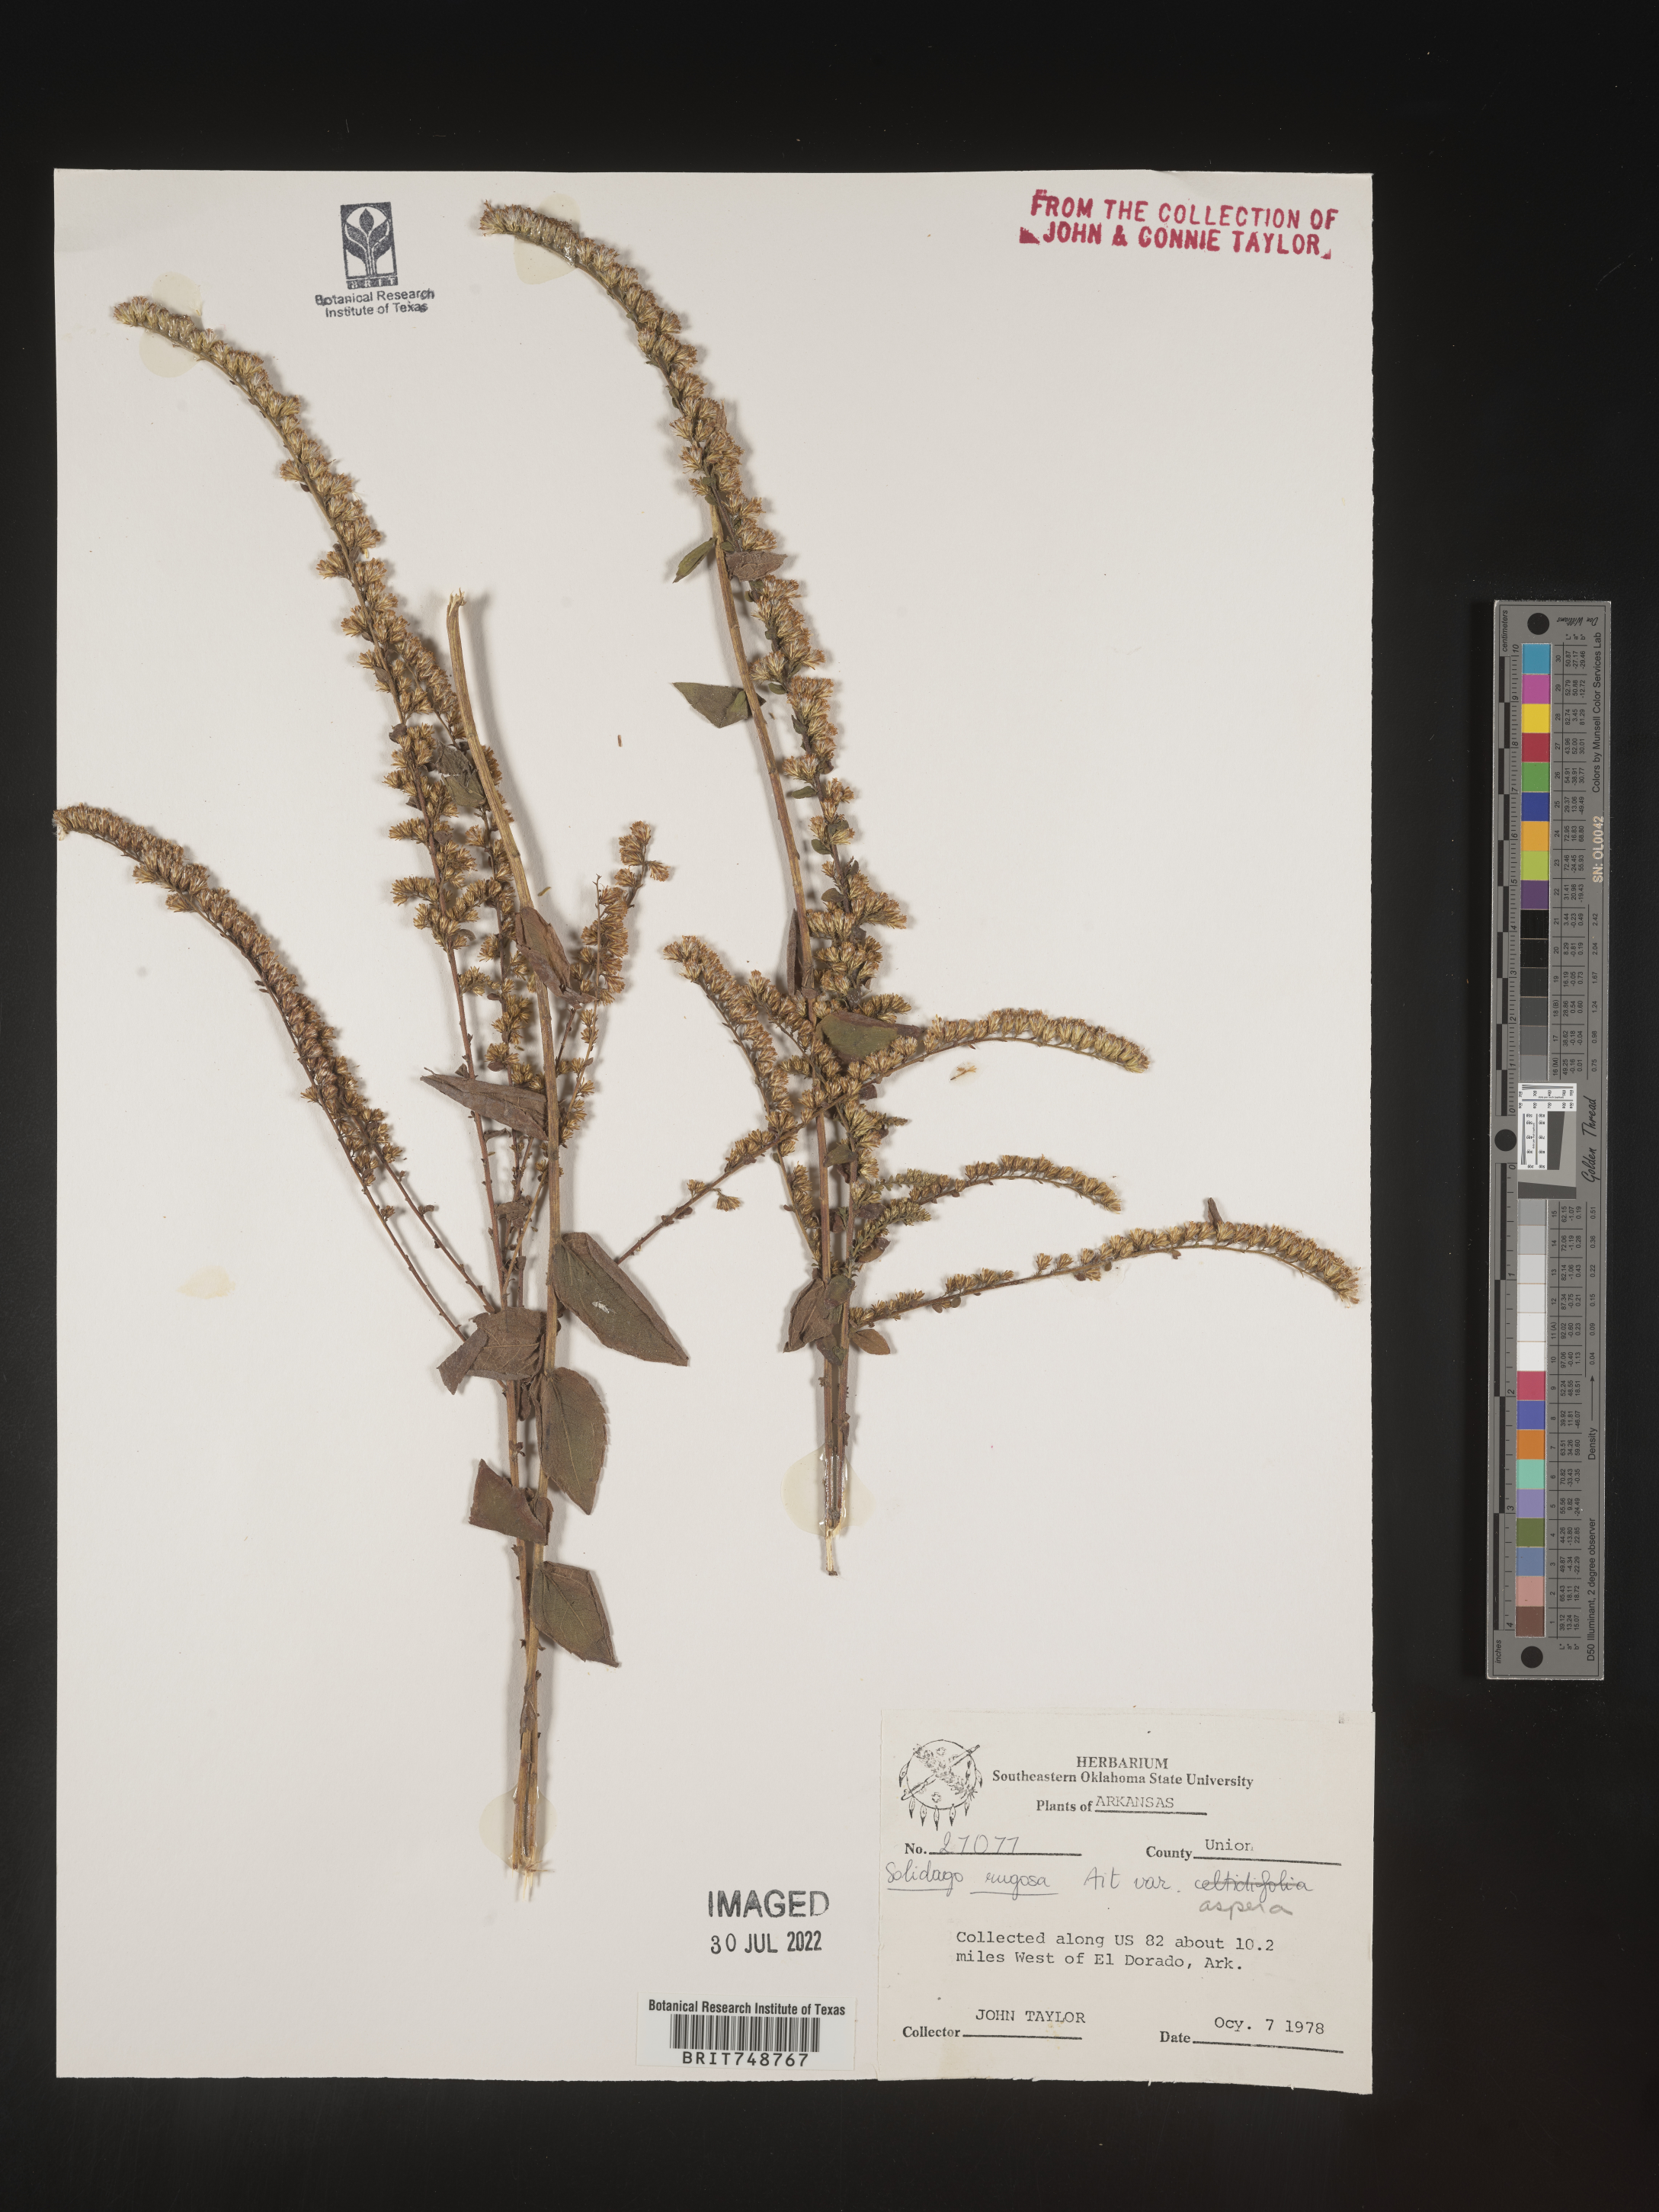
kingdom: Plantae
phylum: Tracheophyta
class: Magnoliopsida
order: Asterales
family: Asteraceae
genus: Solidago
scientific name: Solidago rugosa
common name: Rough-stemmed goldenrod
